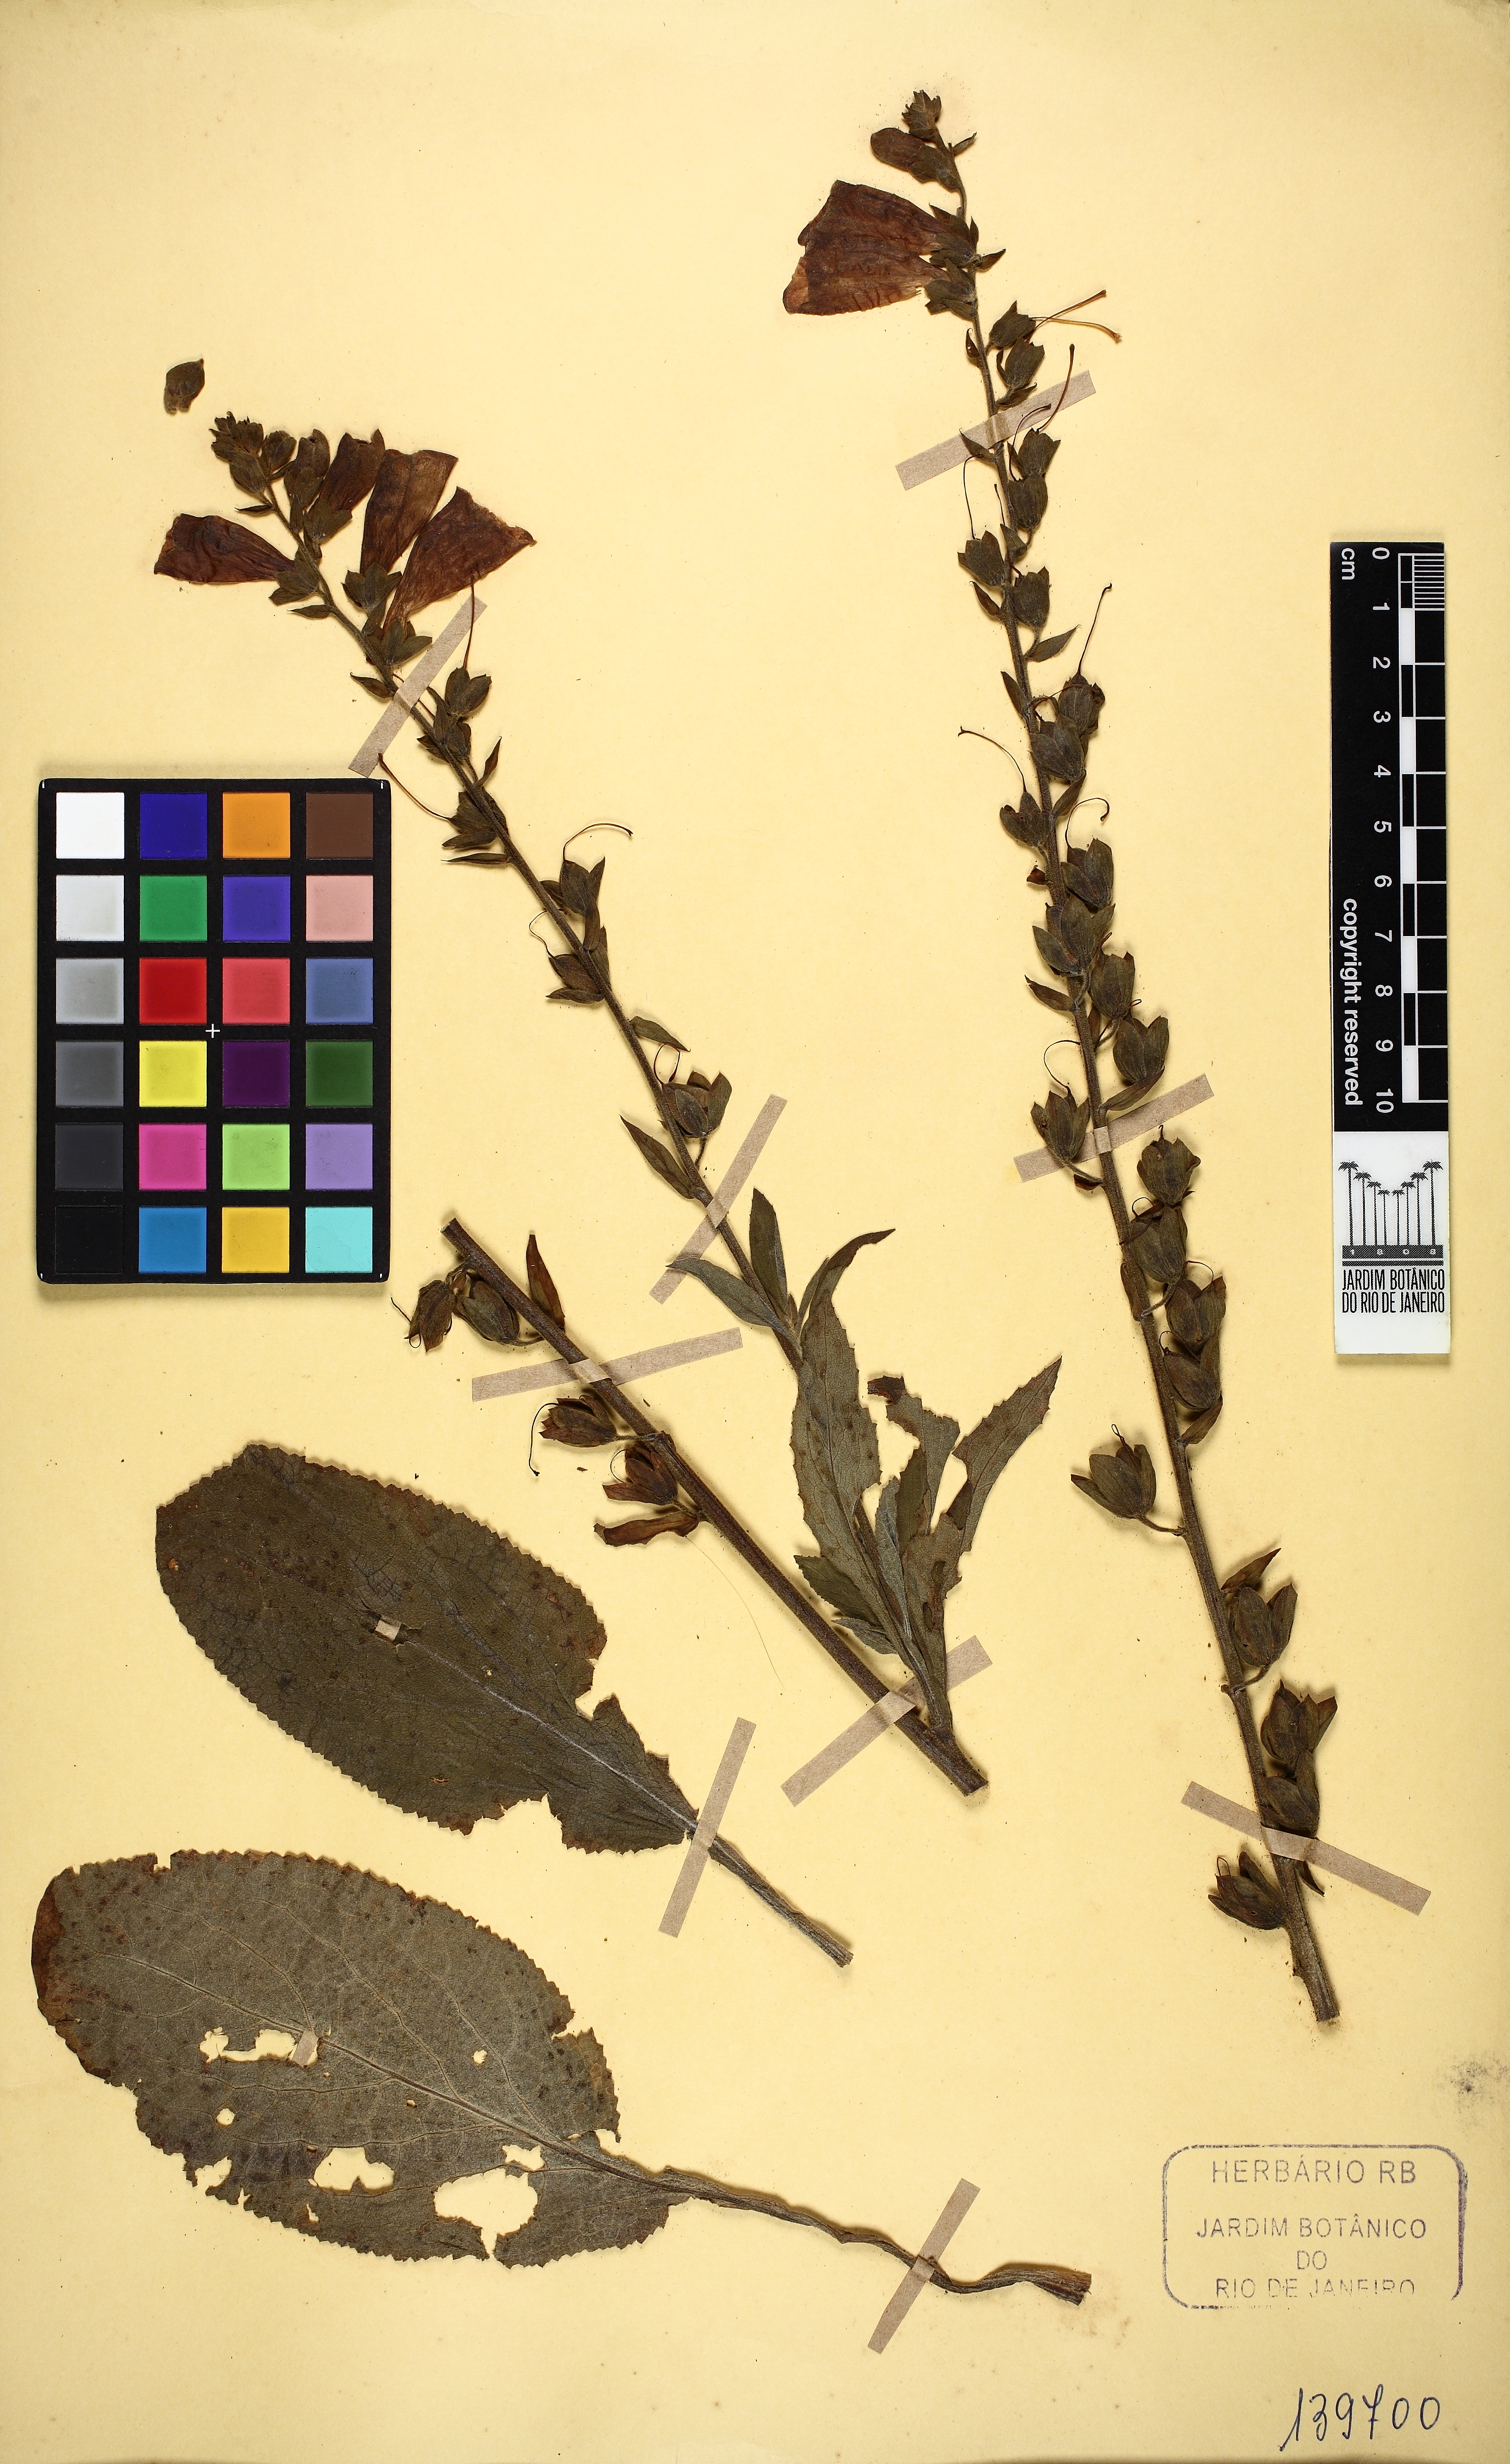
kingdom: Plantae
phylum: Tracheophyta
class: Magnoliopsida
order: Lamiales
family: Plantaginaceae
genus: Digitalis
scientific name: Digitalis purpurea
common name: Foxglove
